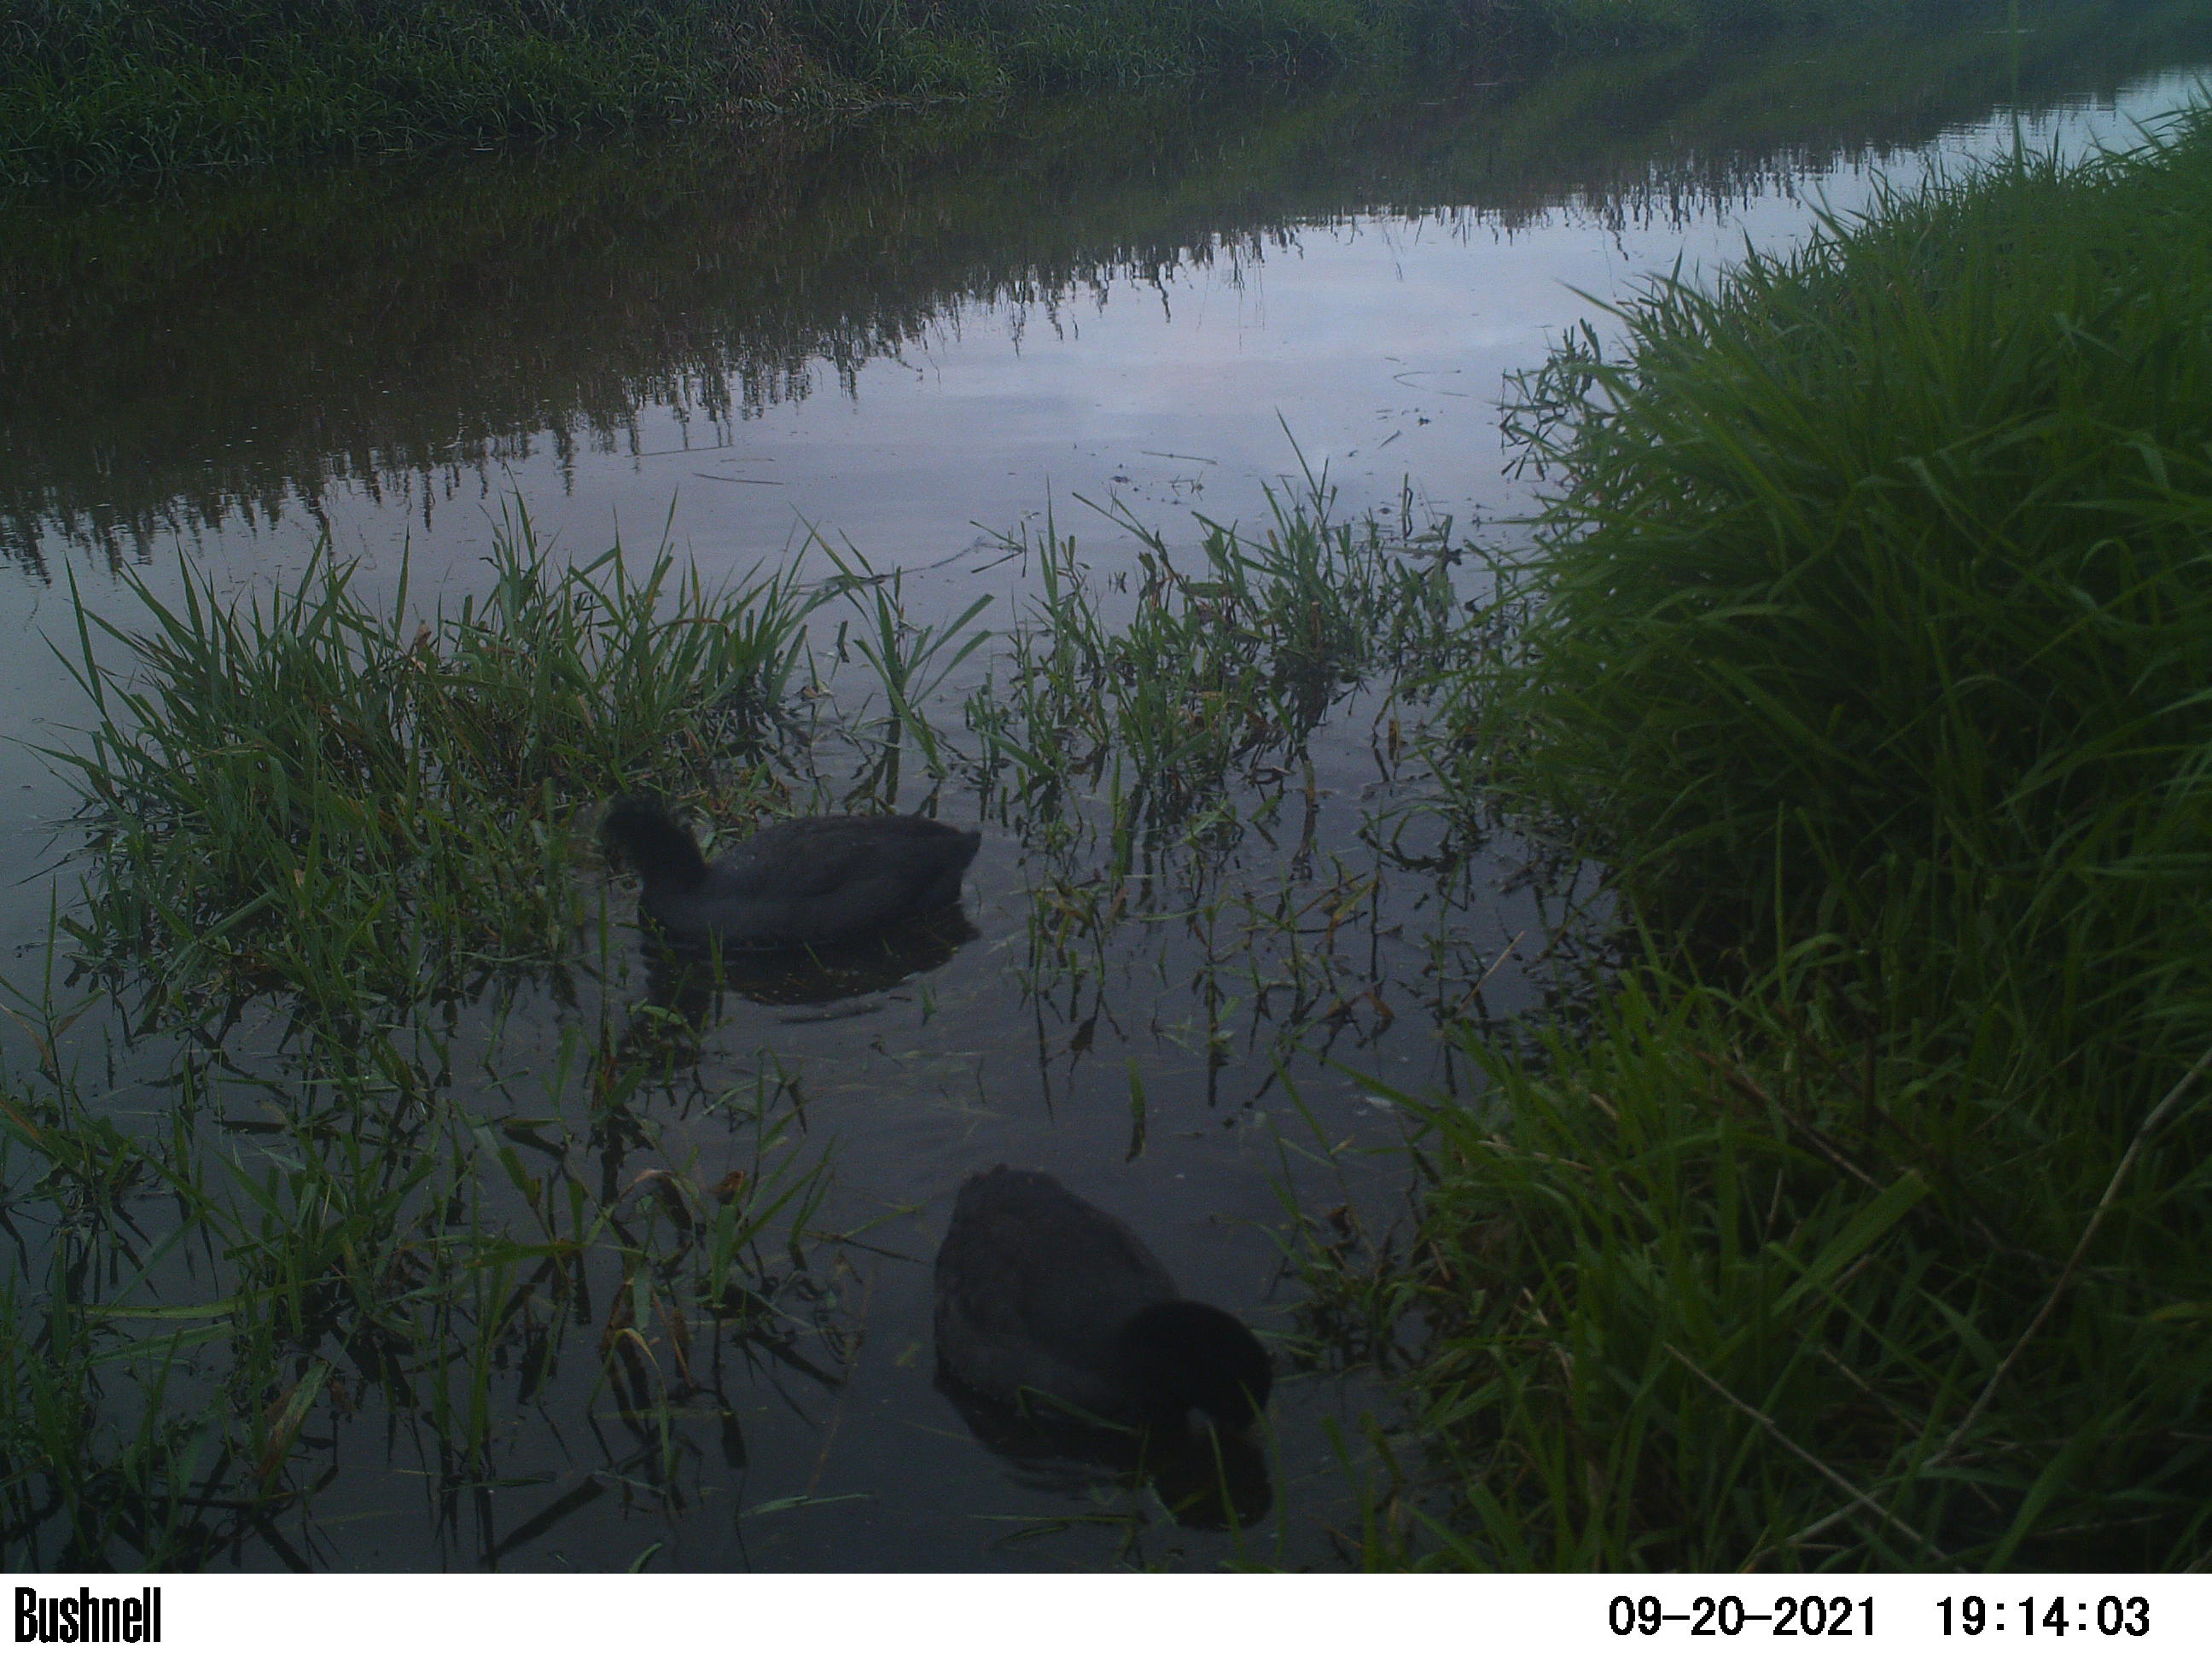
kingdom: Animalia
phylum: Chordata
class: Aves
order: Gruiformes
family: Rallidae
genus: Fulica
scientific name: Fulica atra
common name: Eurasian coot
